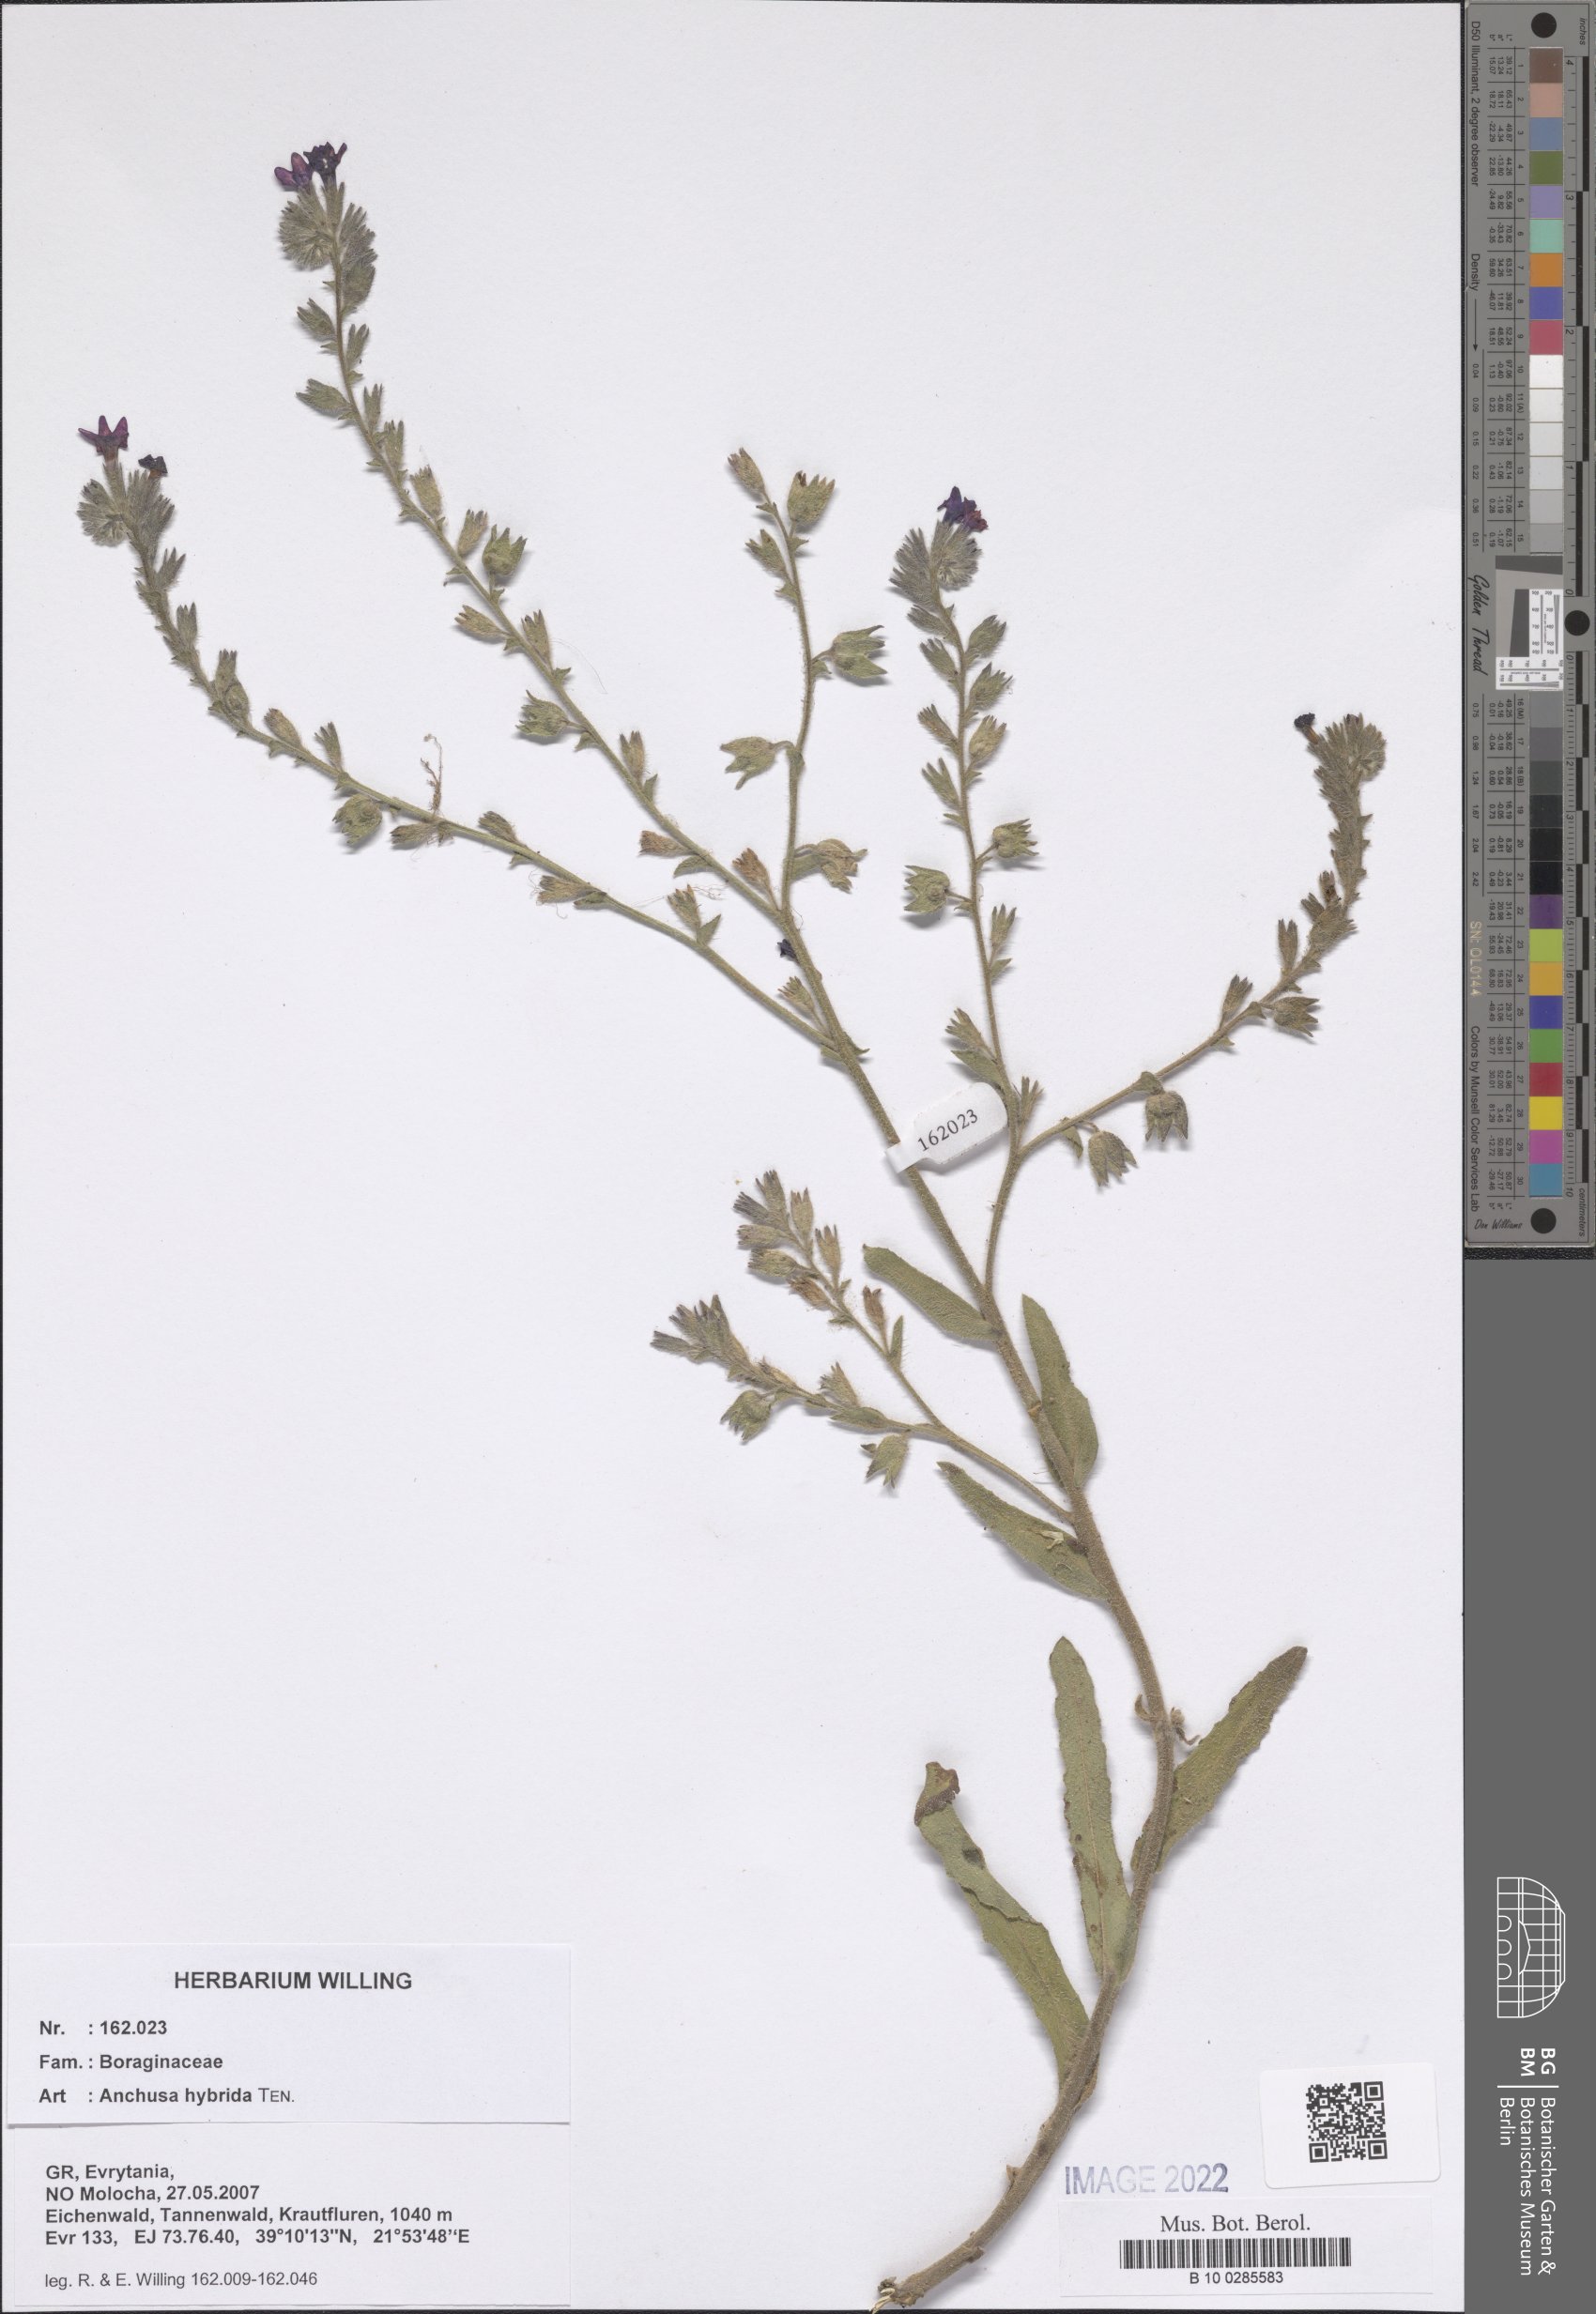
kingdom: Plantae
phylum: Tracheophyta
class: Magnoliopsida
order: Boraginales
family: Boraginaceae
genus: Anchusa
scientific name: Anchusa hybrida
